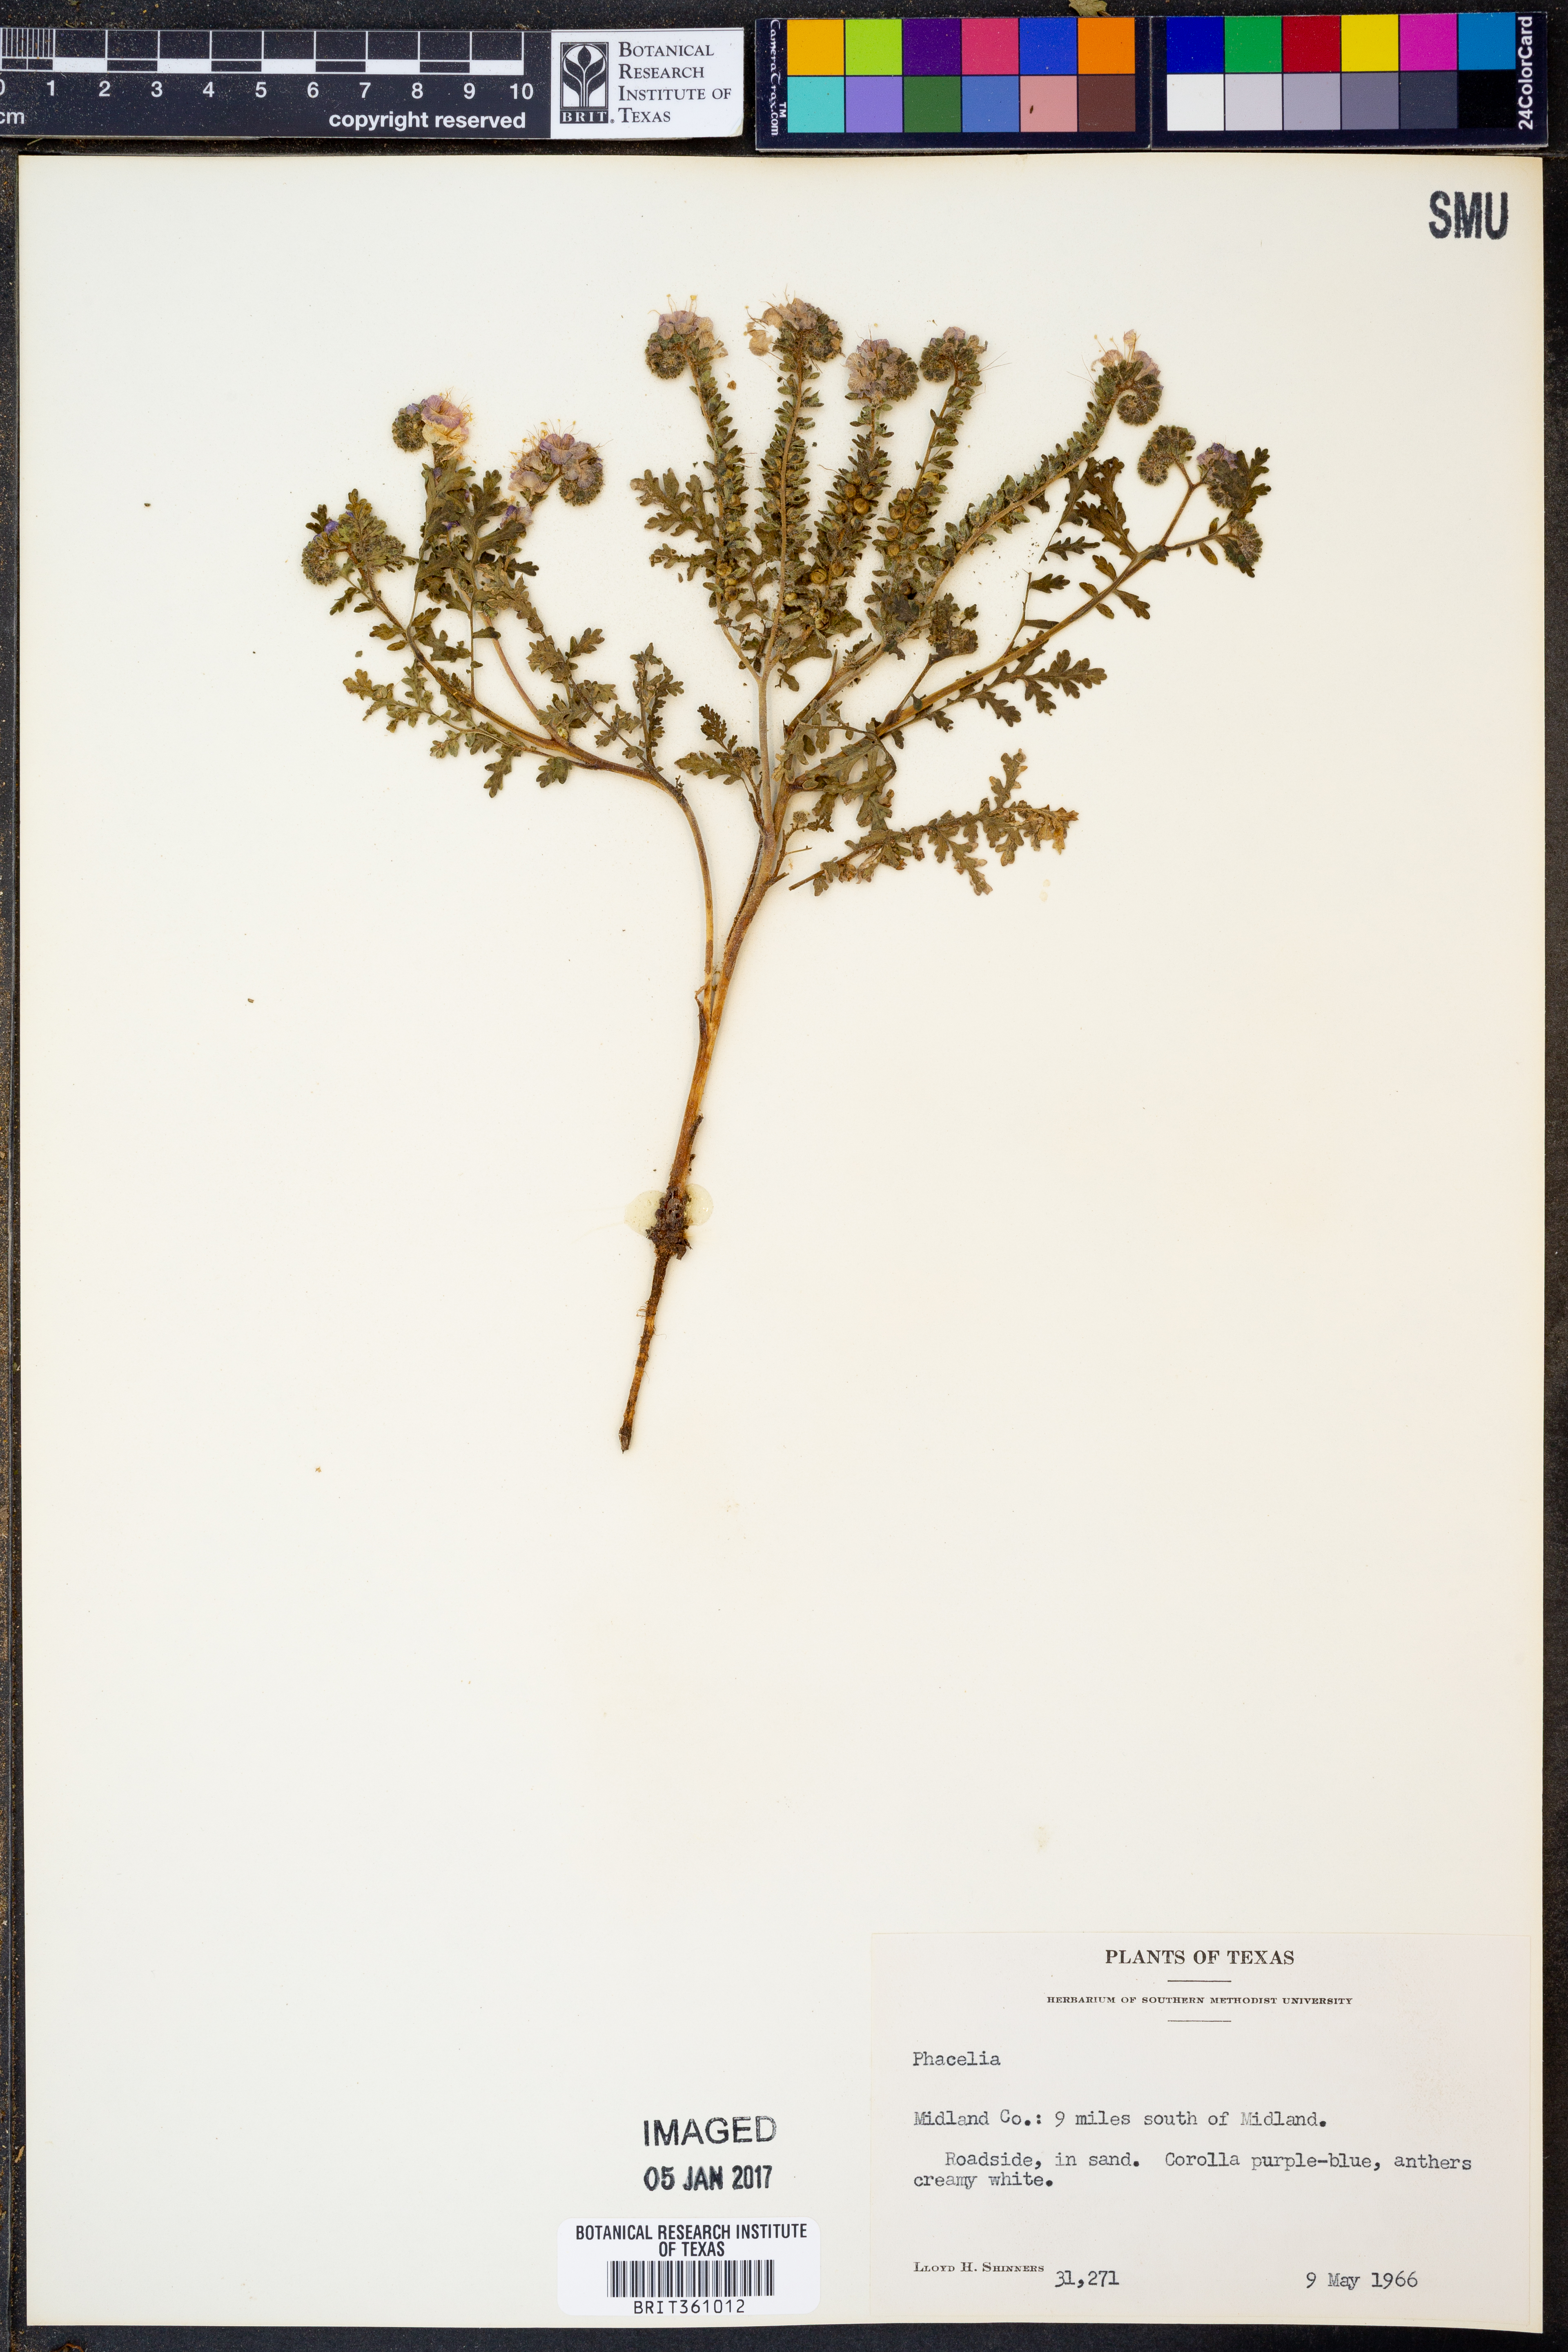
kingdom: Plantae
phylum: Tracheophyta
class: Magnoliopsida
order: Boraginales
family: Hydrophyllaceae
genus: Phacelia
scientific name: Phacelia
